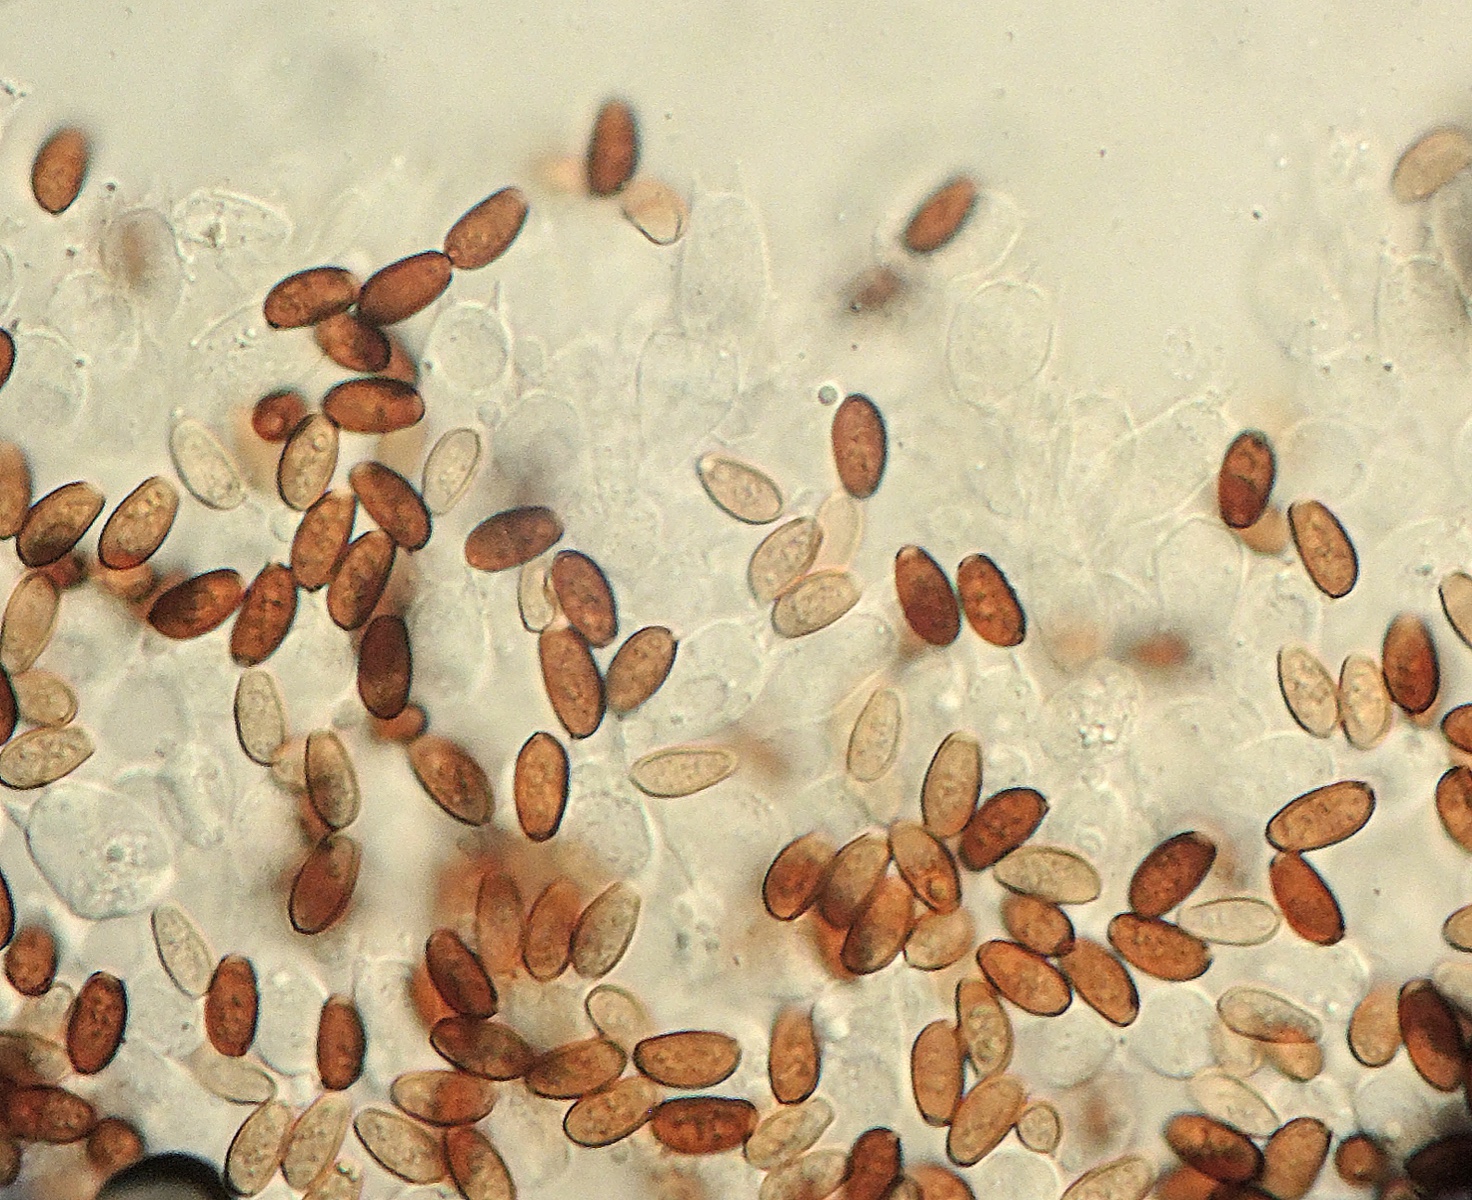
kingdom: Fungi
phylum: Basidiomycota
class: Agaricomycetes
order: Agaricales
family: Psathyrellaceae
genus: Coprinellus
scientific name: Coprinellus
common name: blækhat
